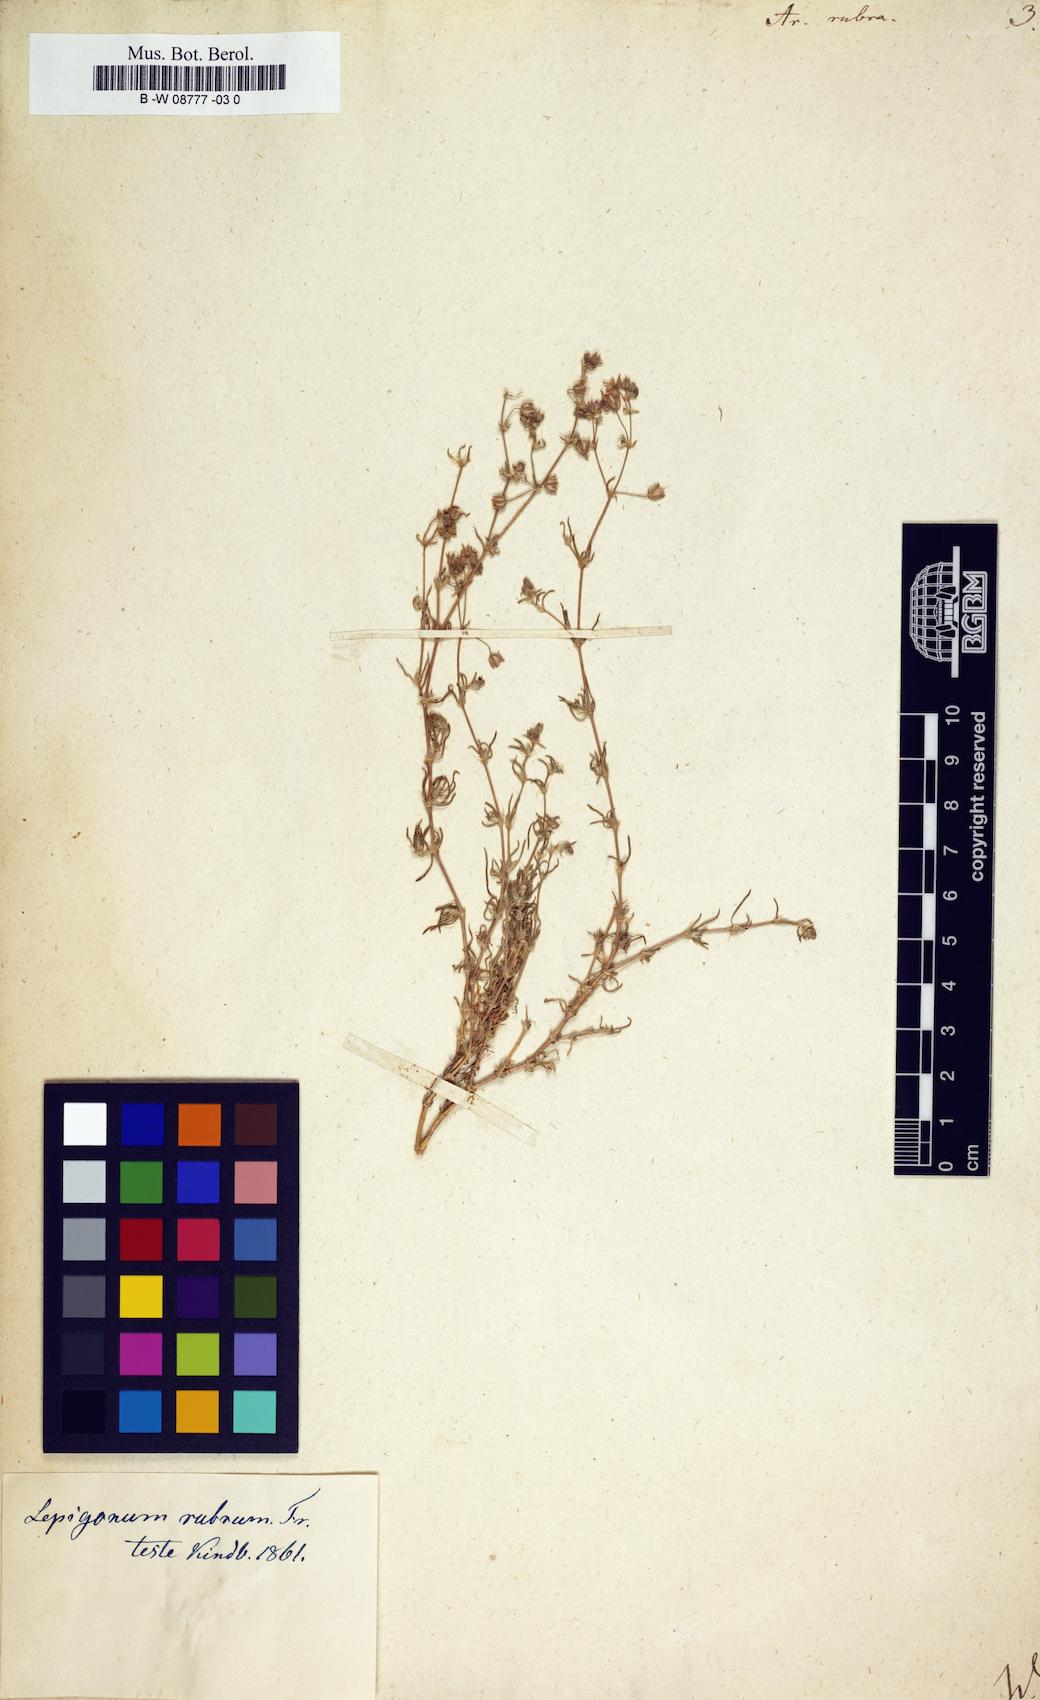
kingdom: Plantae
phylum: Tracheophyta
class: Magnoliopsida
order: Caryophyllales
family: Caryophyllaceae
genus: Spergularia
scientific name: Spergularia rubra
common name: Red sand-spurrey
